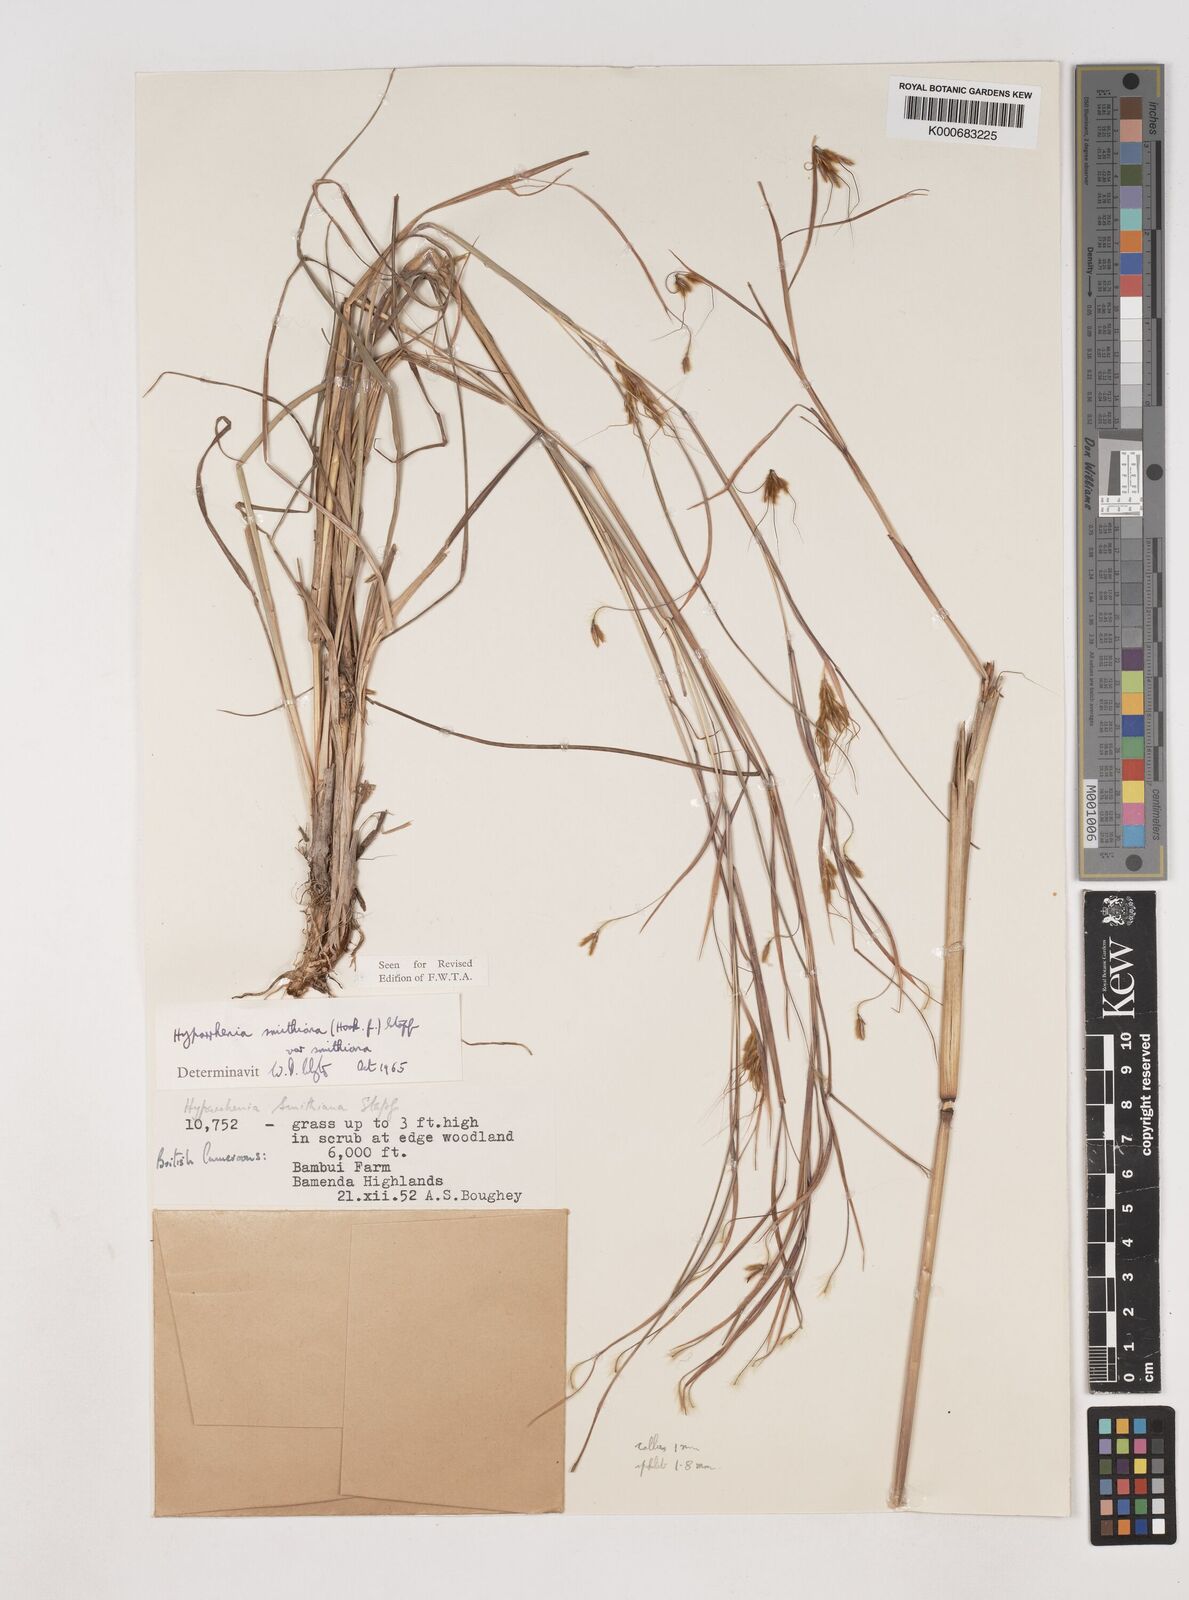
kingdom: Plantae
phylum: Tracheophyta
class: Liliopsida
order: Poales
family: Poaceae
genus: Hyparrhenia
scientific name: Hyparrhenia smithiana
